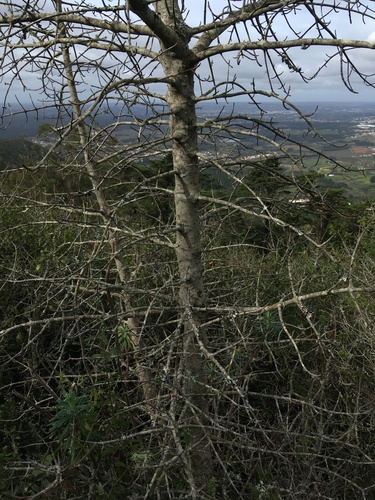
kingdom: Plantae
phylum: Tracheophyta
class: Magnoliopsida
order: Sapindales
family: Sapindaceae
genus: Acer
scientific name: Acer monspessulanum
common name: Montpellier maple
